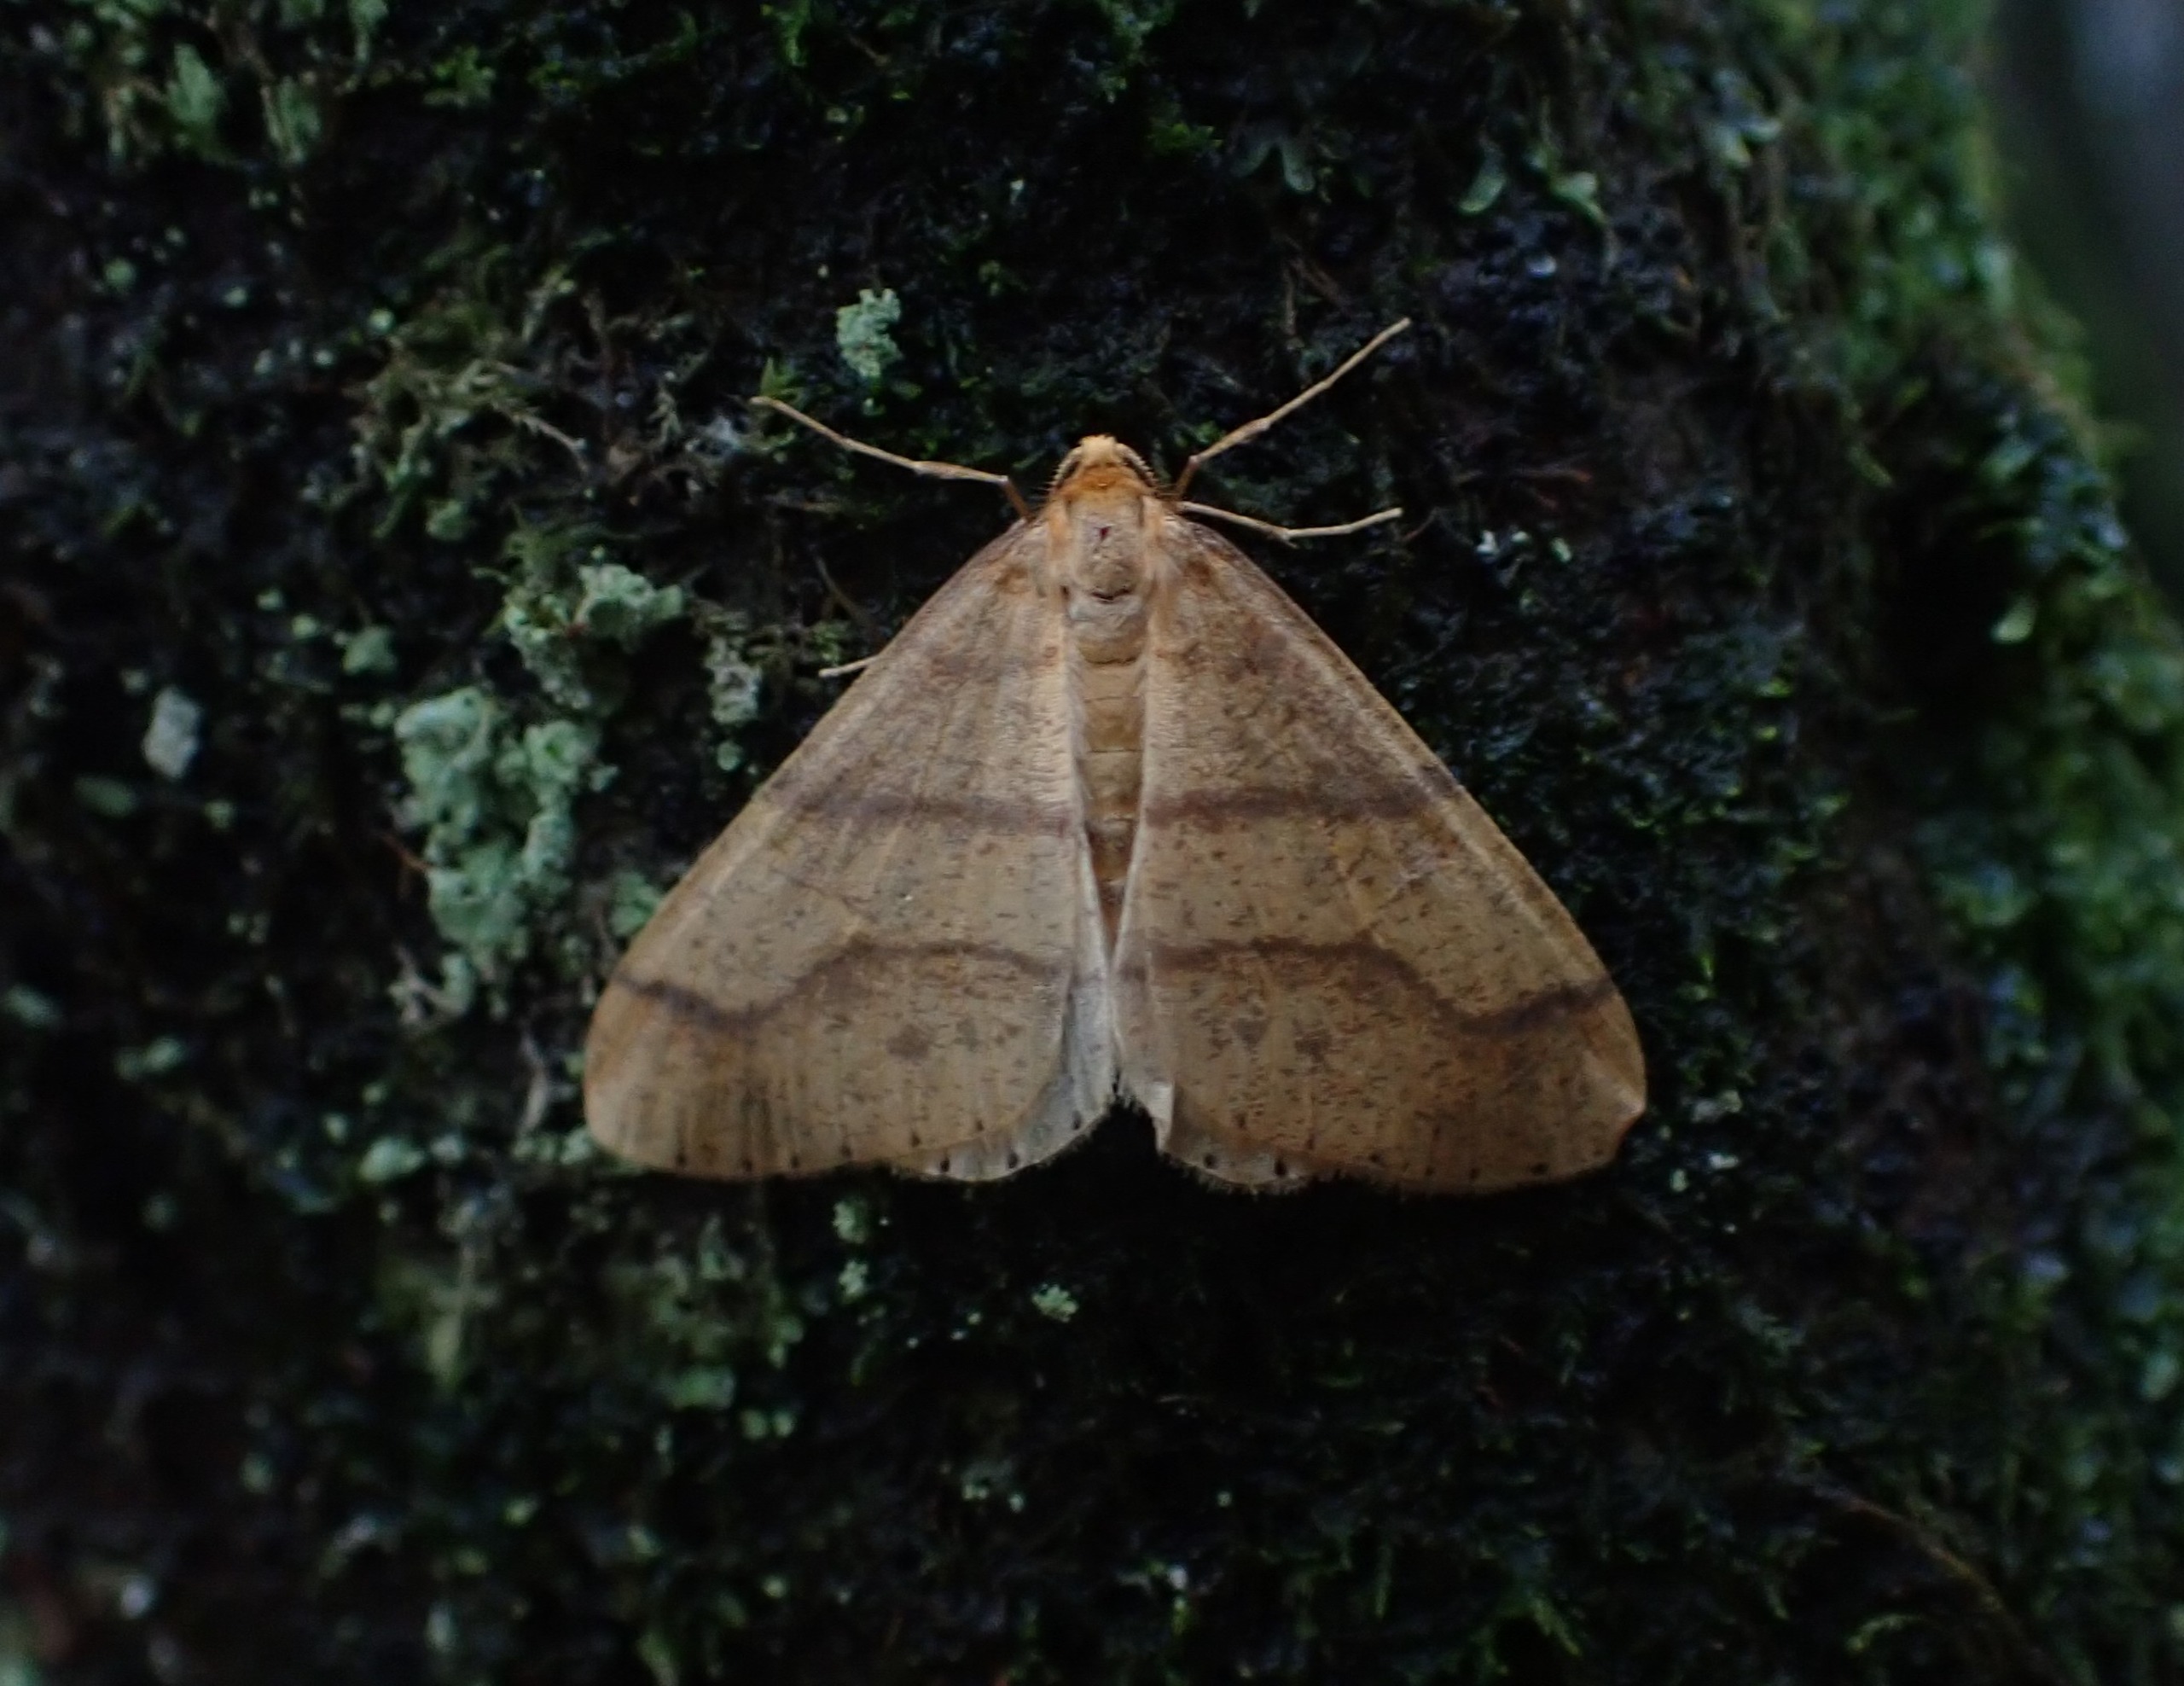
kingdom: Animalia
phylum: Arthropoda
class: Insecta
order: Lepidoptera
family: Geometridae
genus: Agriopis
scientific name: Agriopis aurantiaria
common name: Guldgul frostmåler
